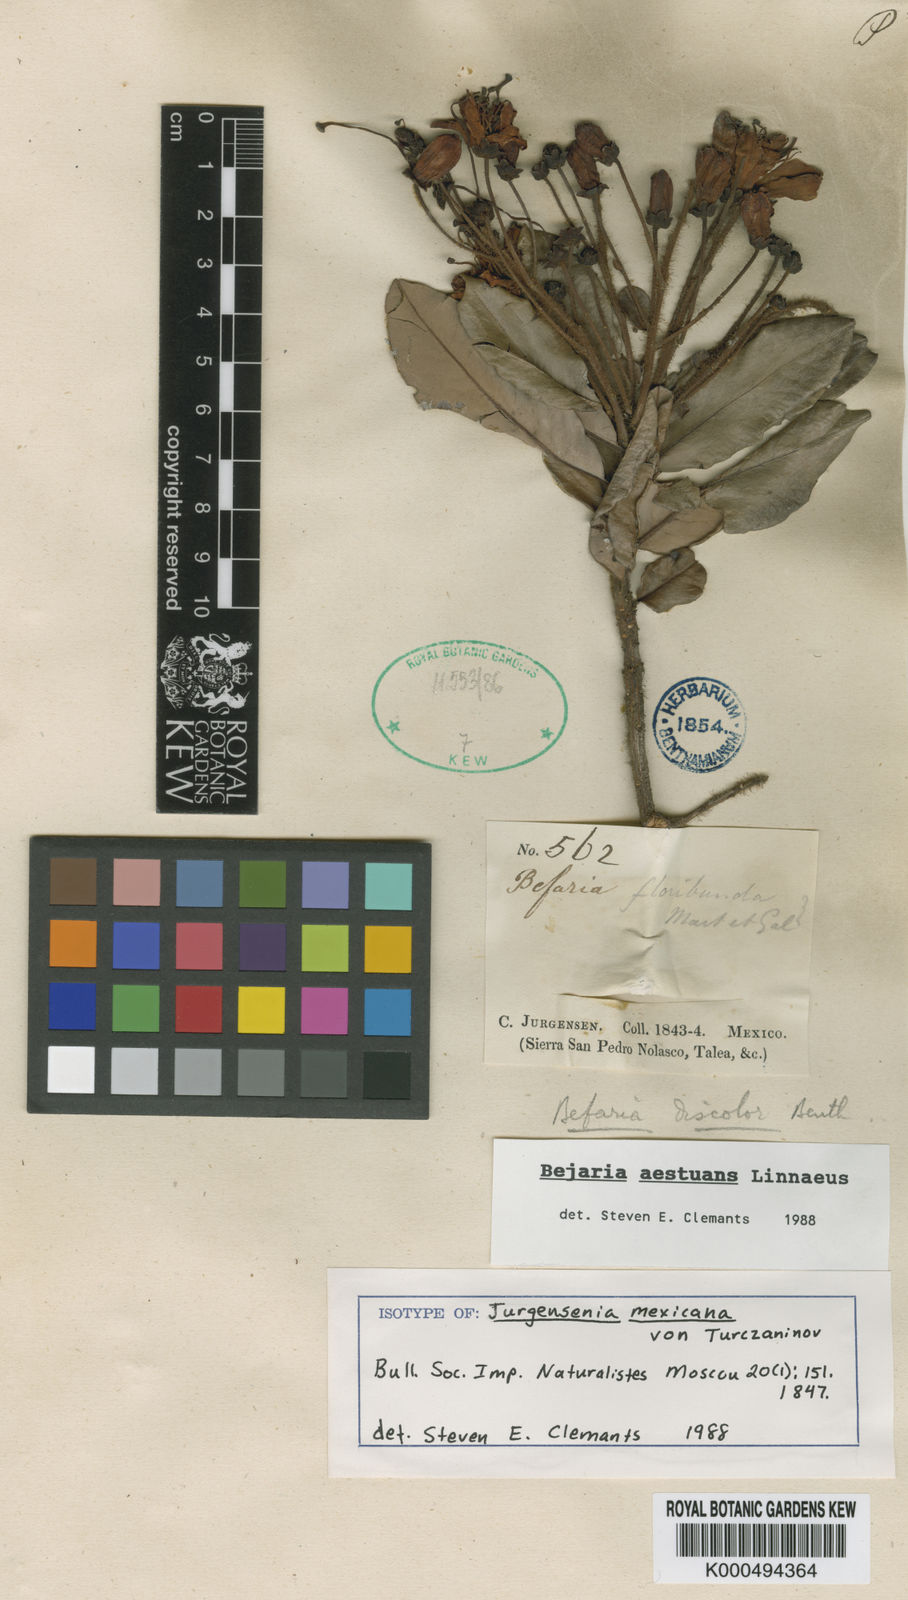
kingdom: Plantae
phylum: Tracheophyta
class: Magnoliopsida
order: Ericales
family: Ericaceae
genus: Bejaria
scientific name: Bejaria
